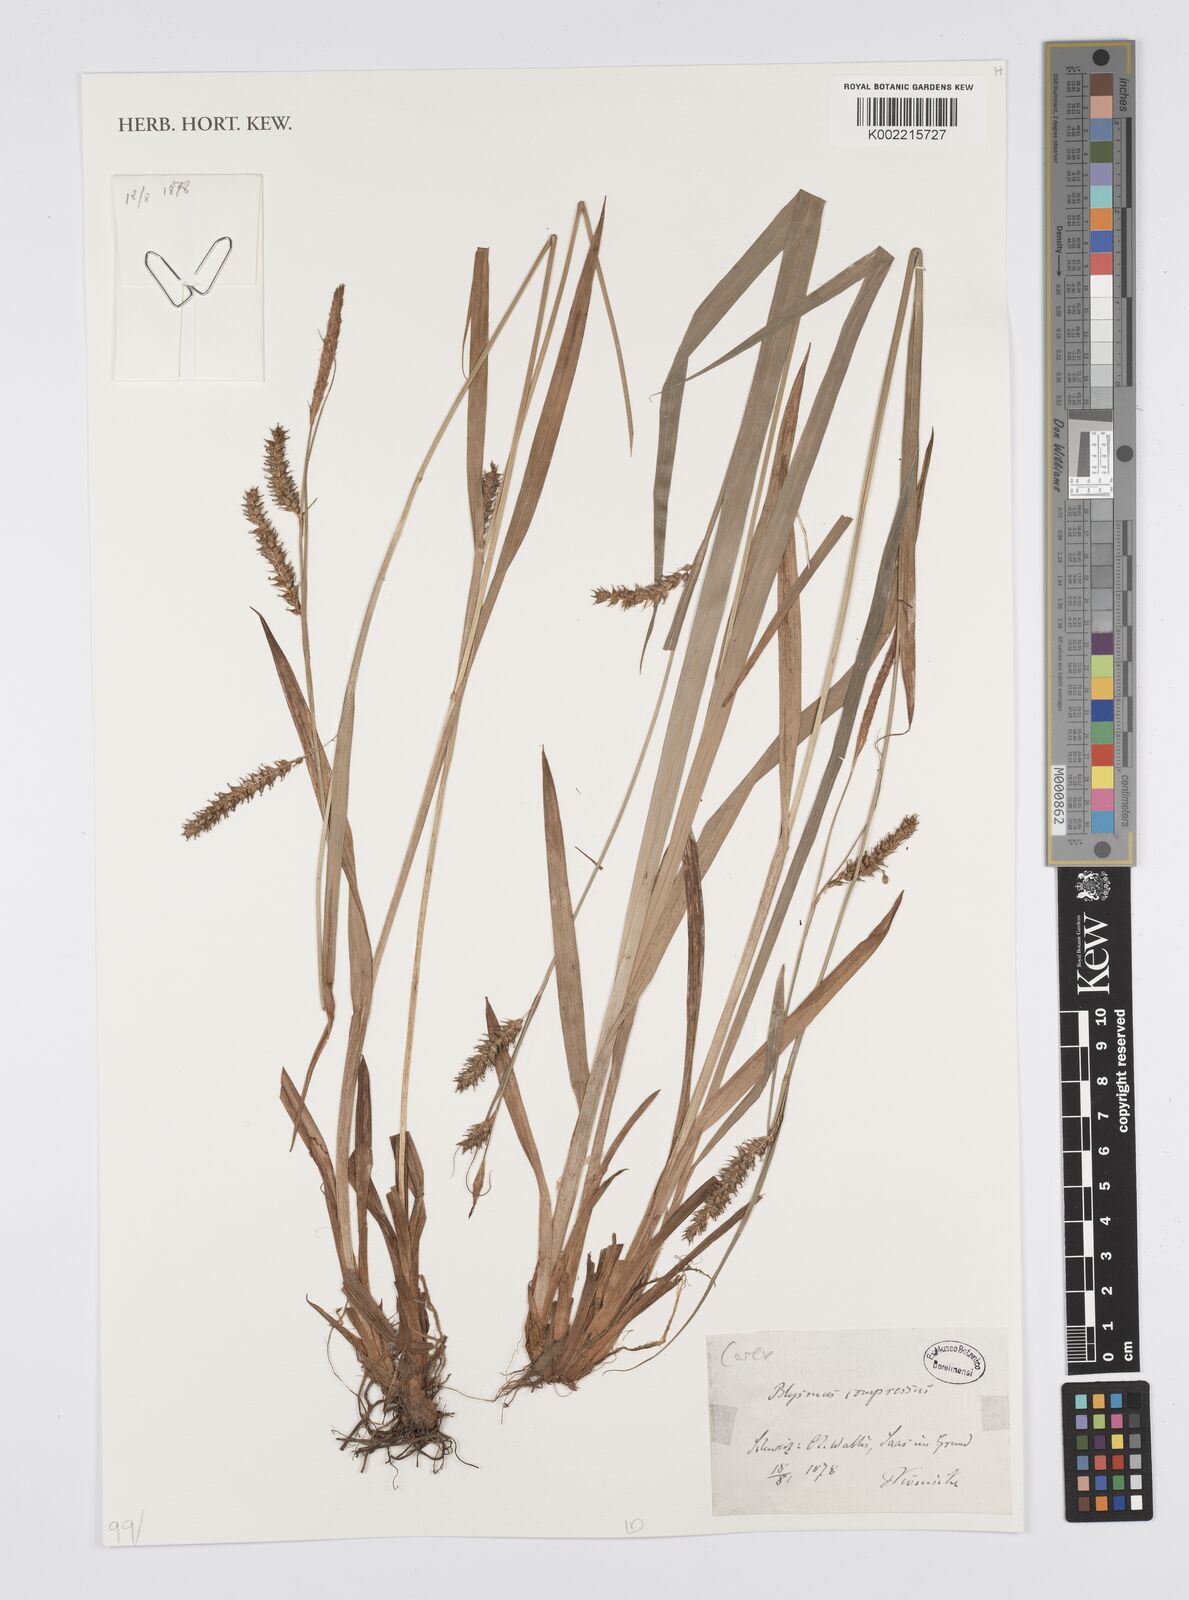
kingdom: Plantae
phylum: Tracheophyta
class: Liliopsida
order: Poales
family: Cyperaceae
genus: Carex
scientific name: Carex
